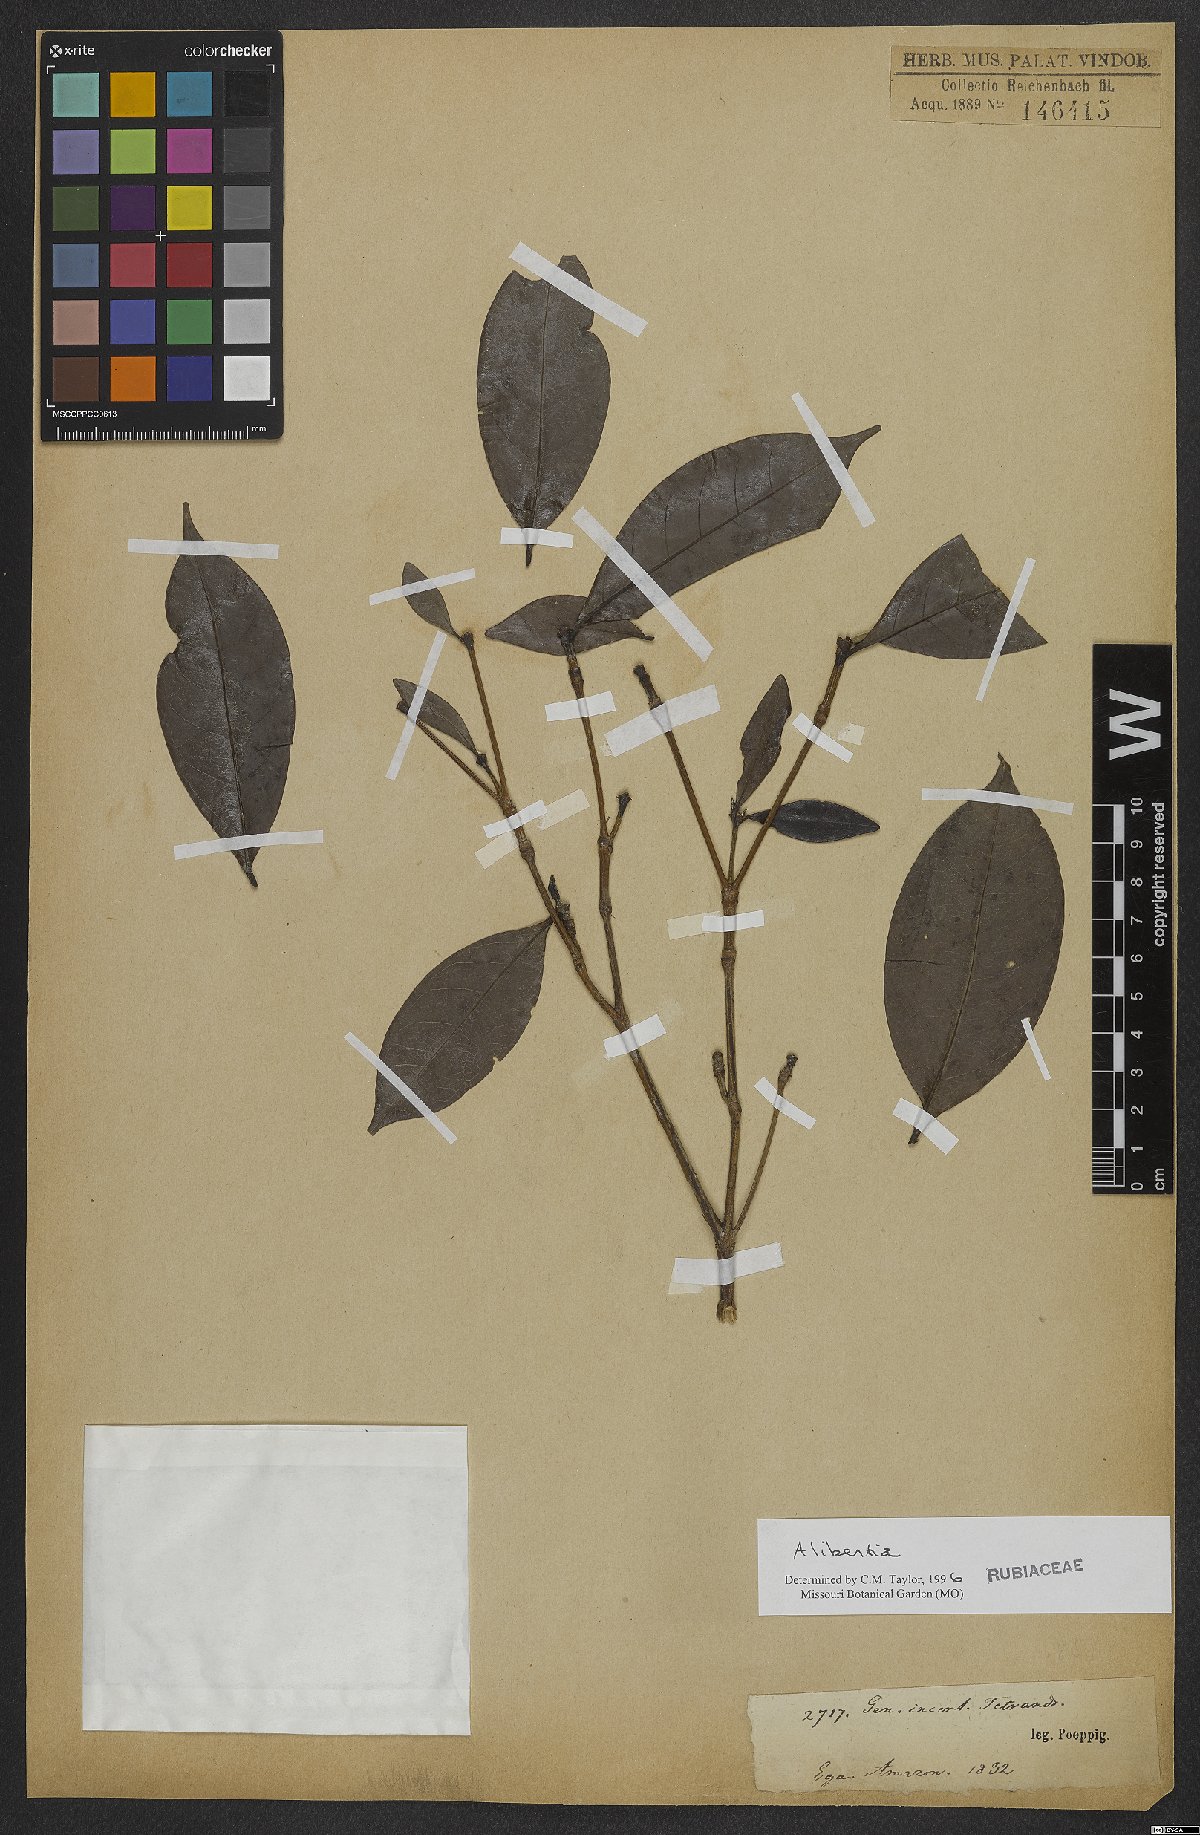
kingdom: Plantae
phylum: Tracheophyta
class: Magnoliopsida
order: Gentianales
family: Rubiaceae
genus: Alibertia
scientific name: Alibertia
